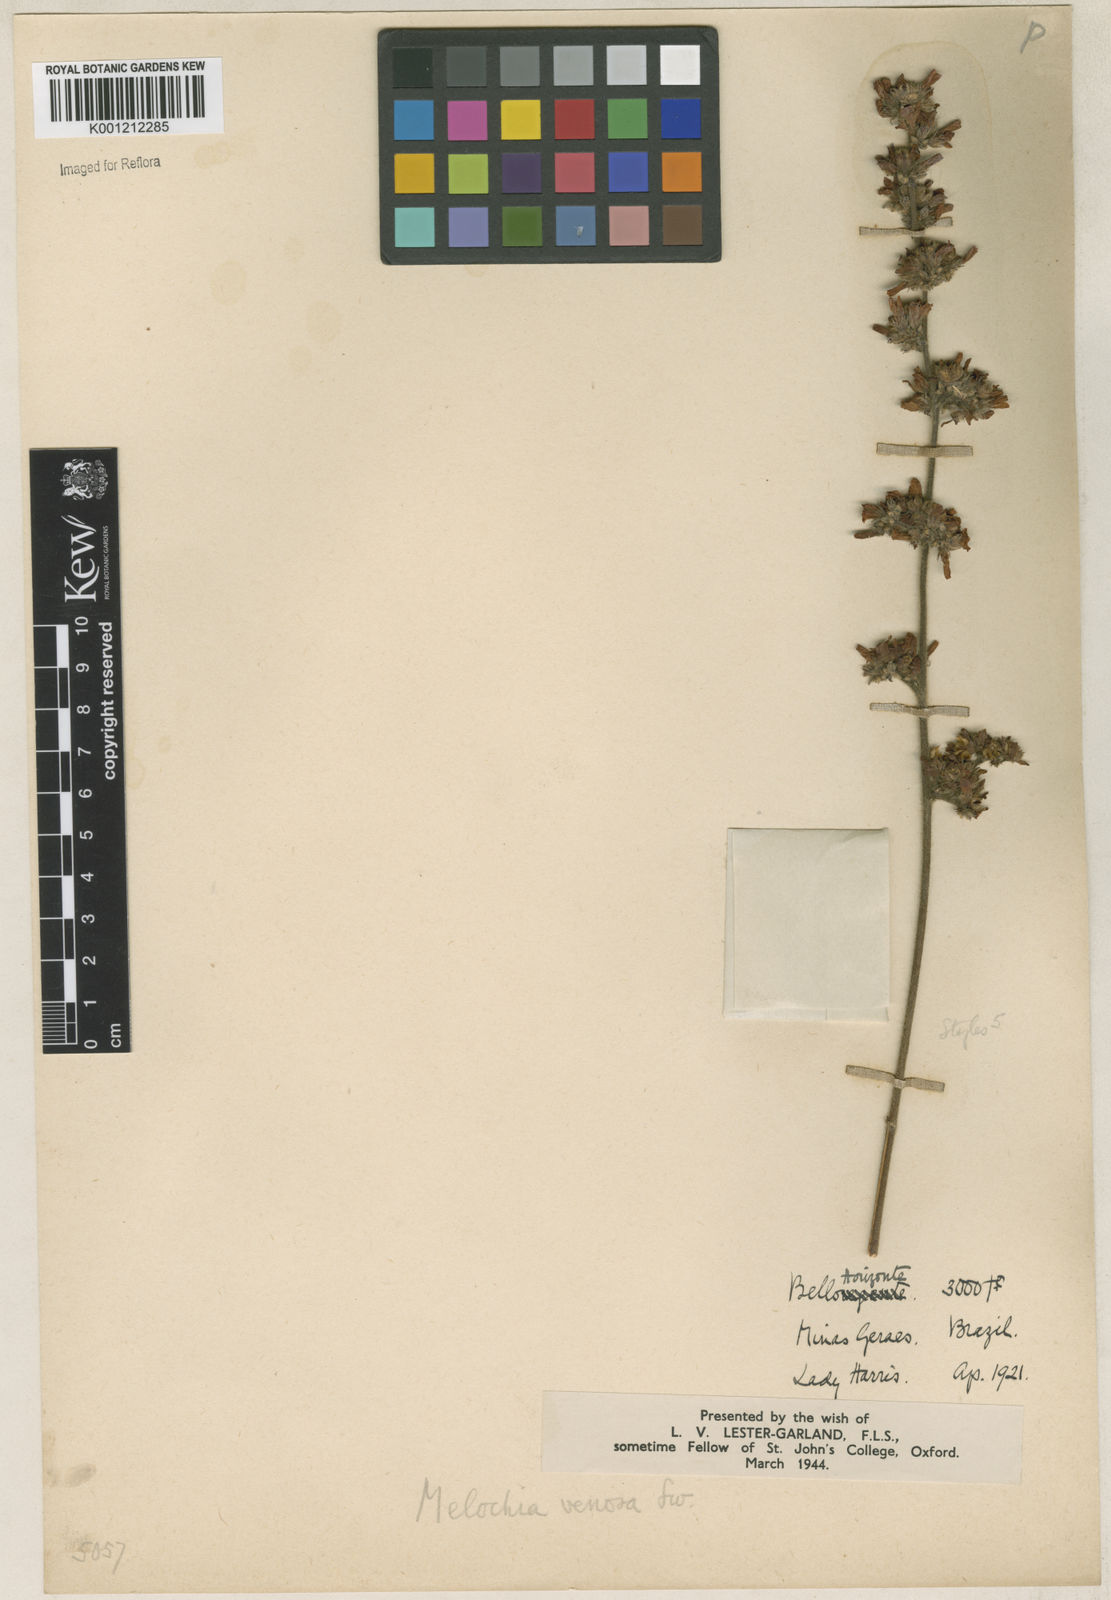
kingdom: Plantae
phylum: Tracheophyta
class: Magnoliopsida
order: Malvales
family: Malvaceae
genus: Melochia
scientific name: Melochia pilosa
